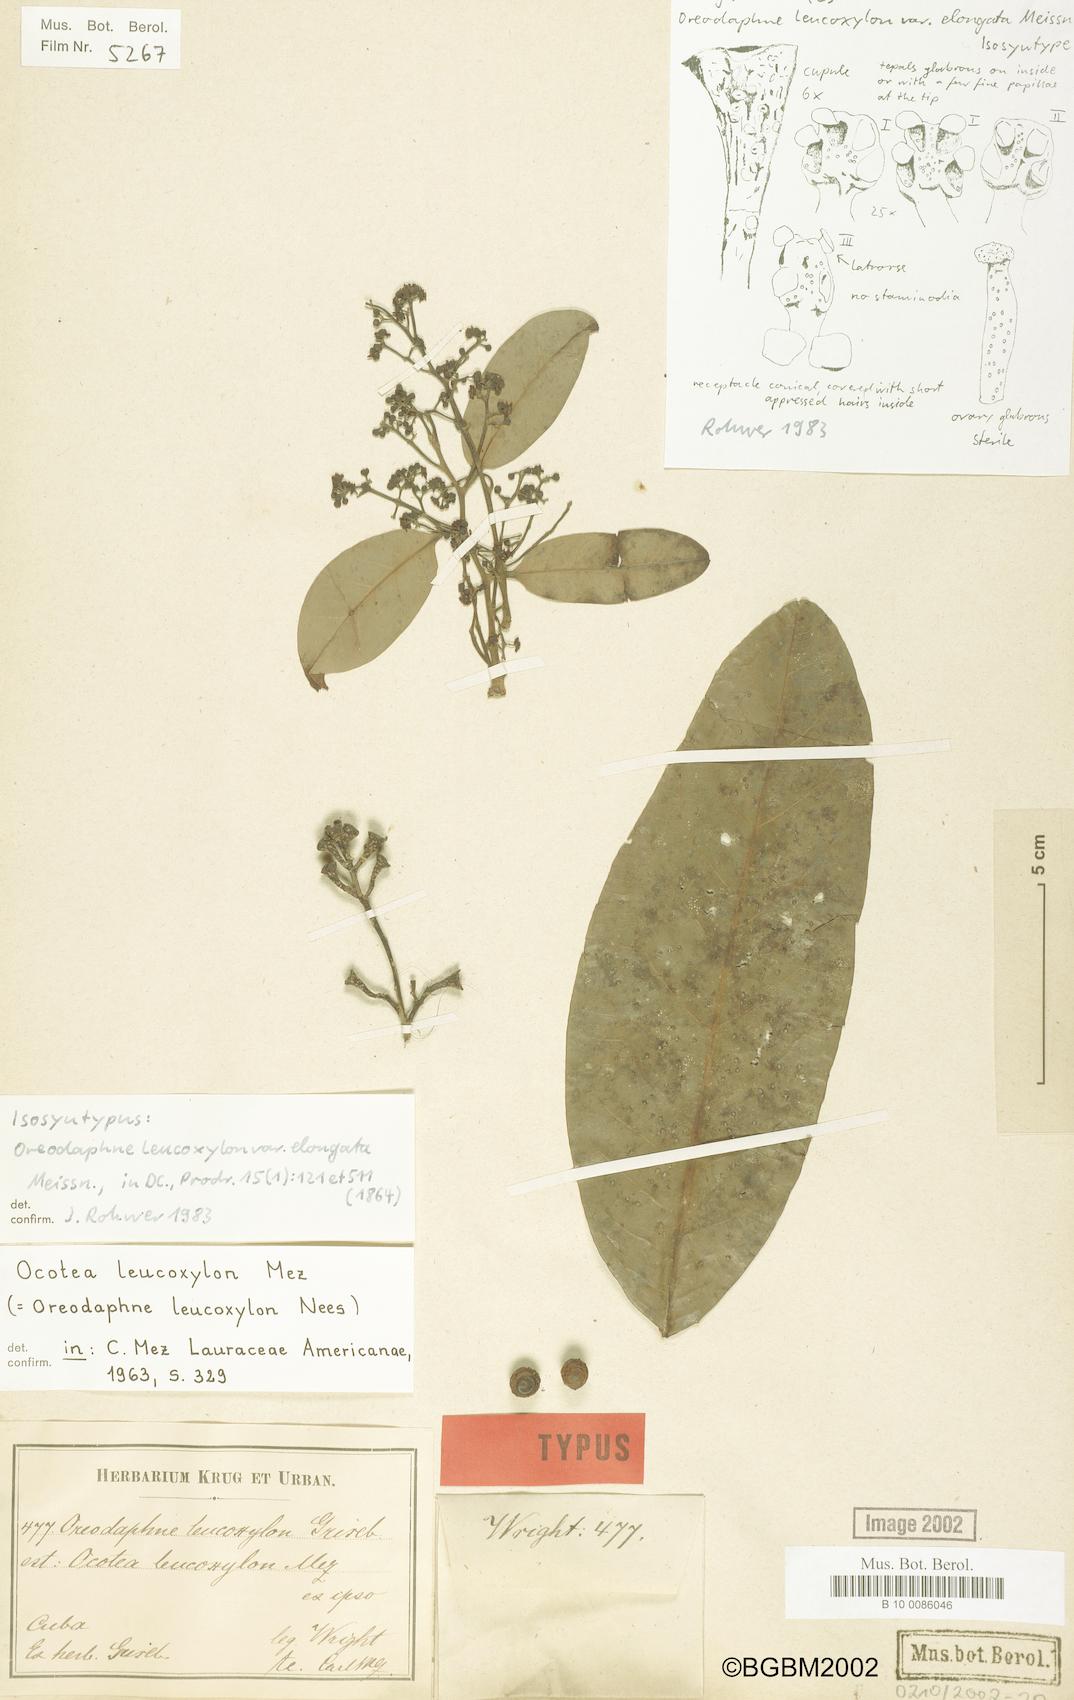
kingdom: Plantae
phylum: Tracheophyta
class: Magnoliopsida
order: Laurales
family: Lauraceae
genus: Ocotea
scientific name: Ocotea leucoxylon
